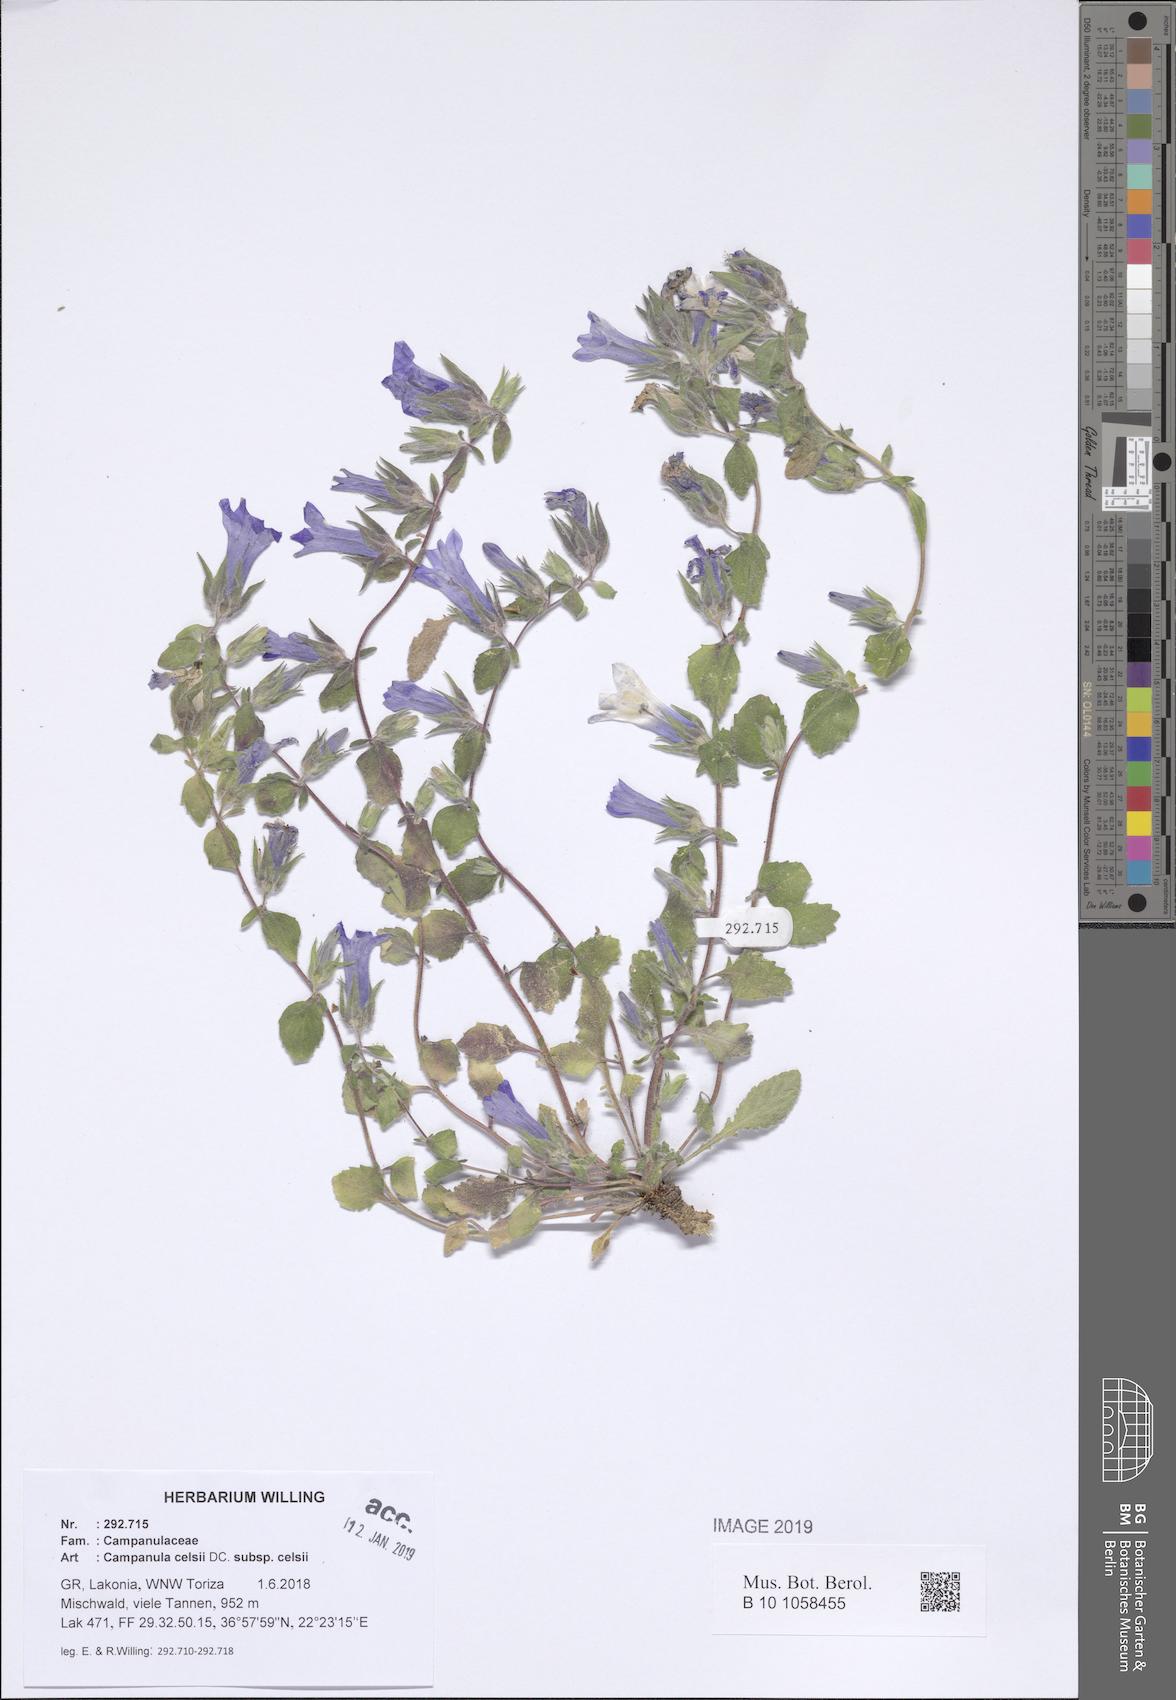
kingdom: Plantae
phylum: Tracheophyta
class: Magnoliopsida
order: Asterales
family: Campanulaceae
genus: Campanula
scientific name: Campanula celsii
